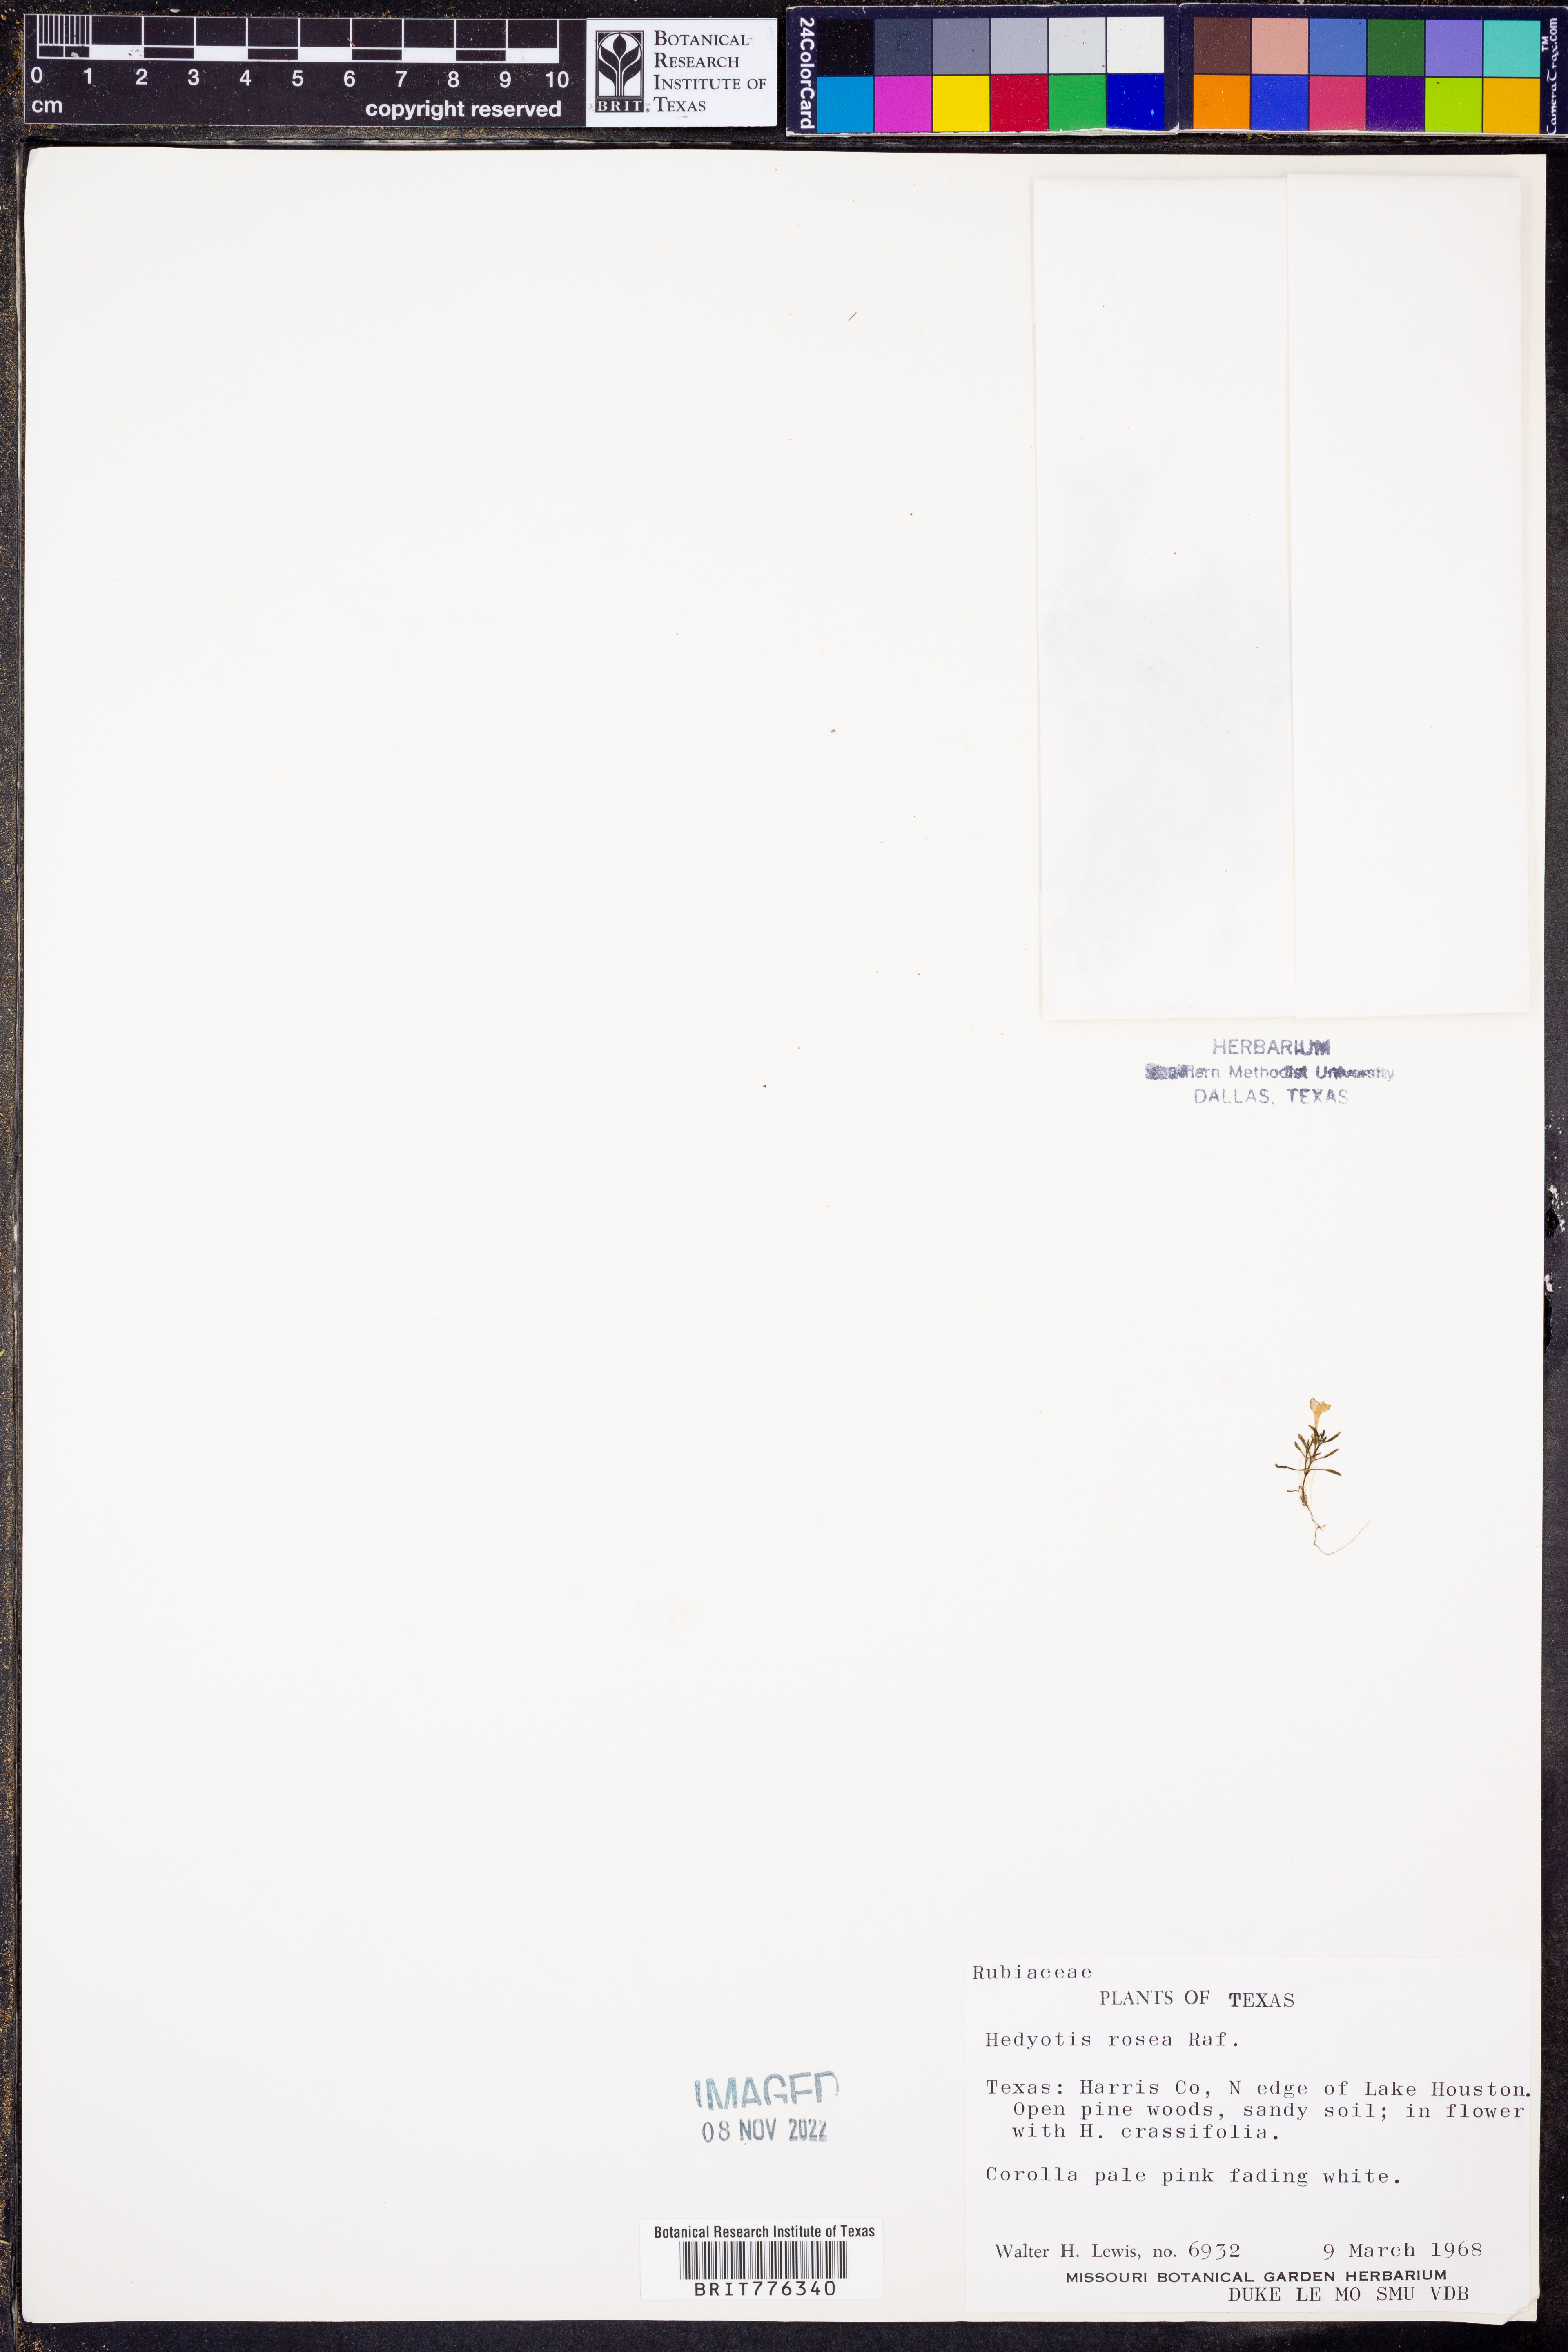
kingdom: Plantae
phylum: Tracheophyta
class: Magnoliopsida
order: Gentianales
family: Rubiaceae
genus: Houstonia
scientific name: Houstonia rosea
